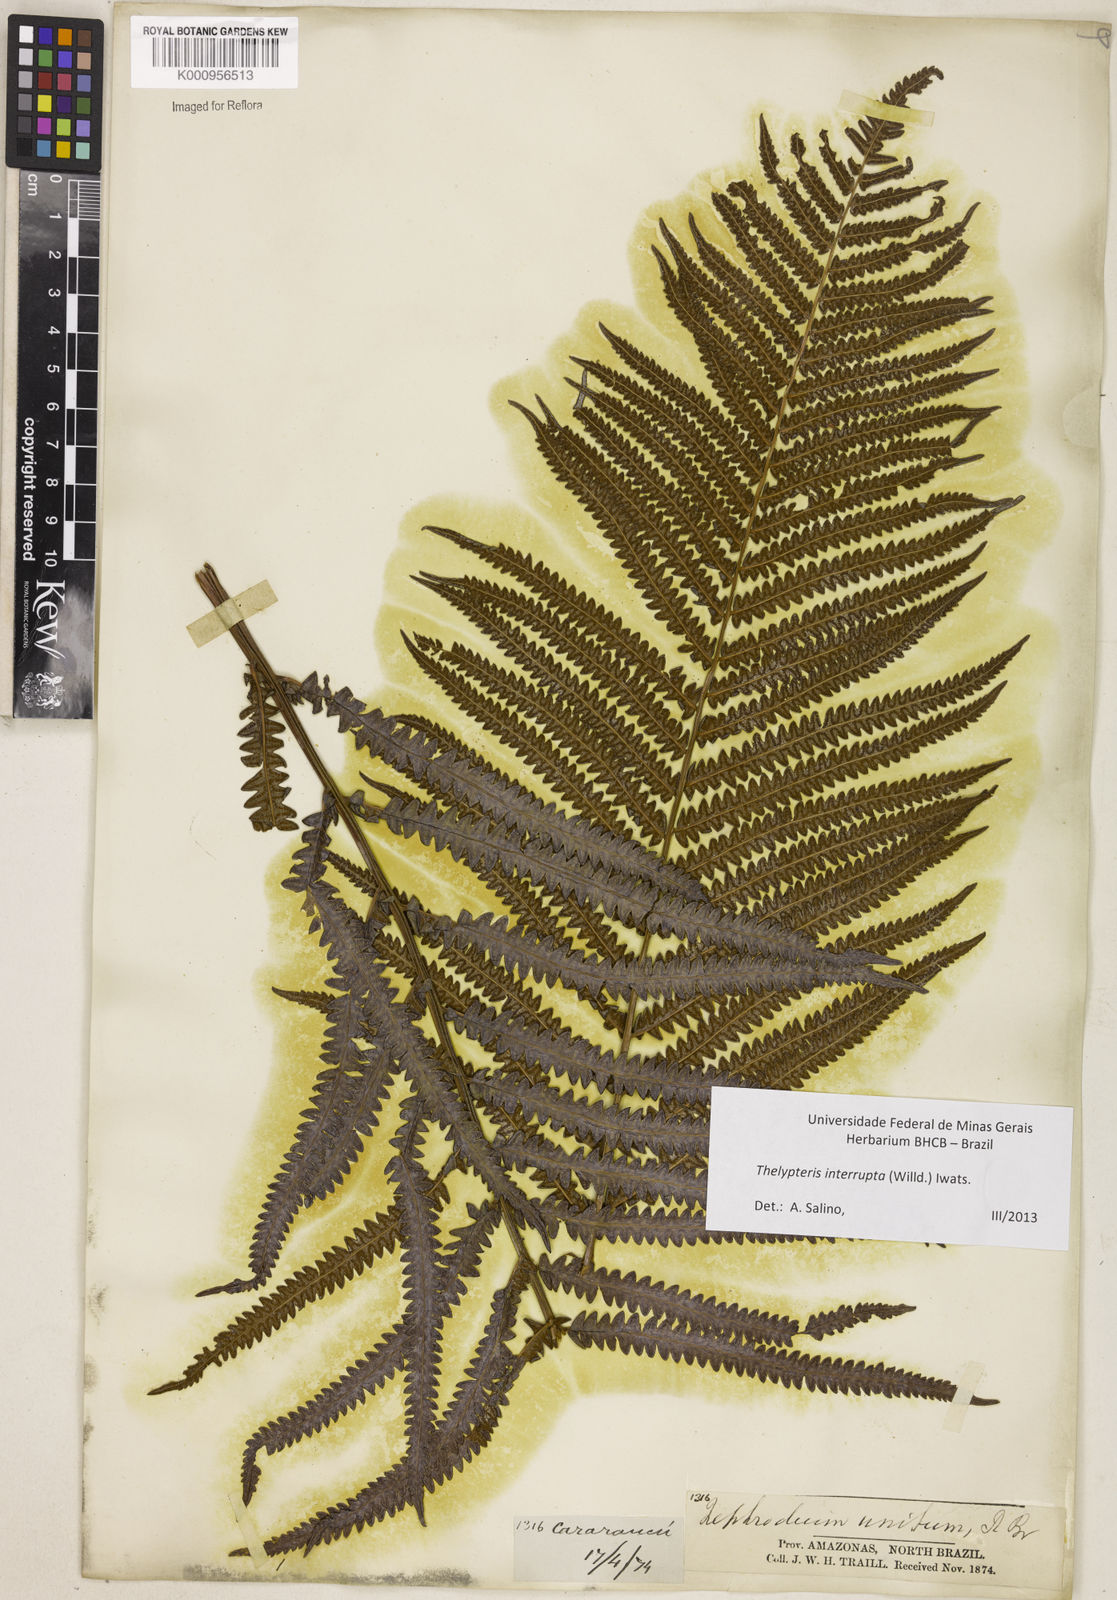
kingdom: Plantae
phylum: Tracheophyta
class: Polypodiopsida
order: Polypodiales
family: Thelypteridaceae
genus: Cyclosorus
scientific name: Cyclosorus interruptus
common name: Neke fern
